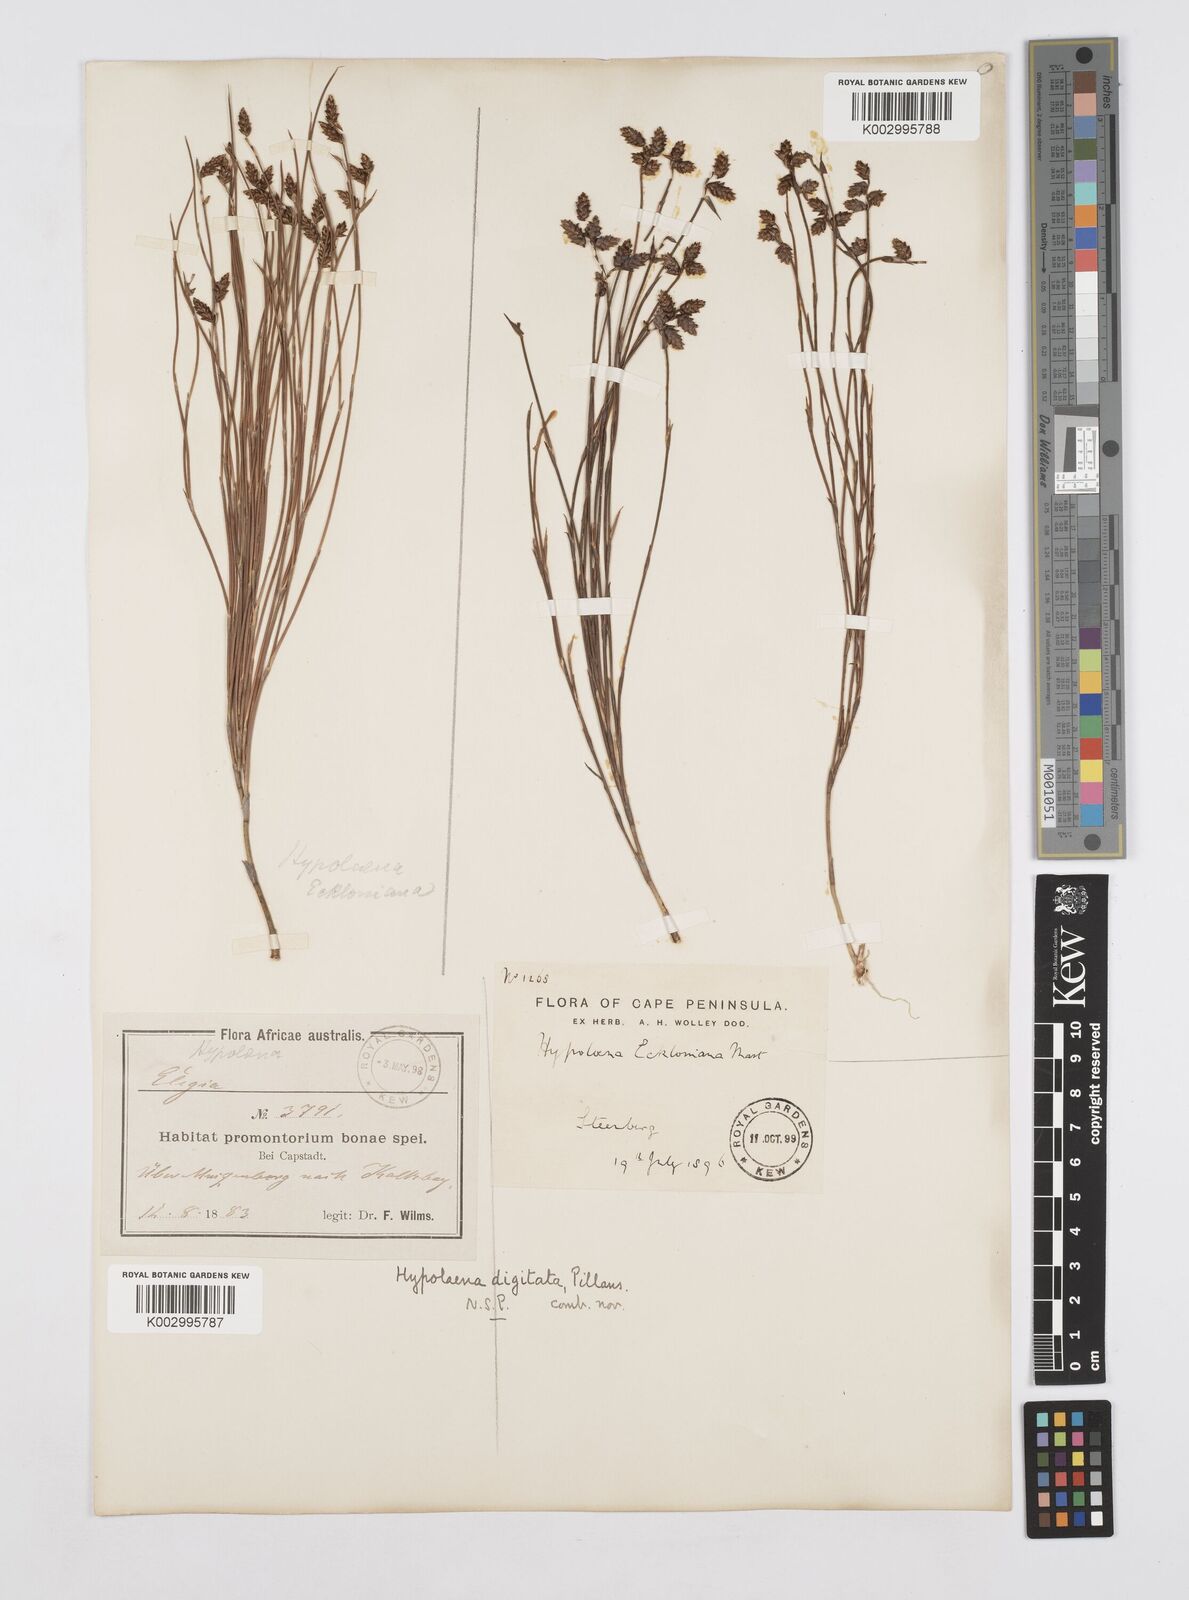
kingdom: Plantae
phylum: Tracheophyta
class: Liliopsida
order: Poales
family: Restionaceae
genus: Mastersiella
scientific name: Mastersiella digitata
